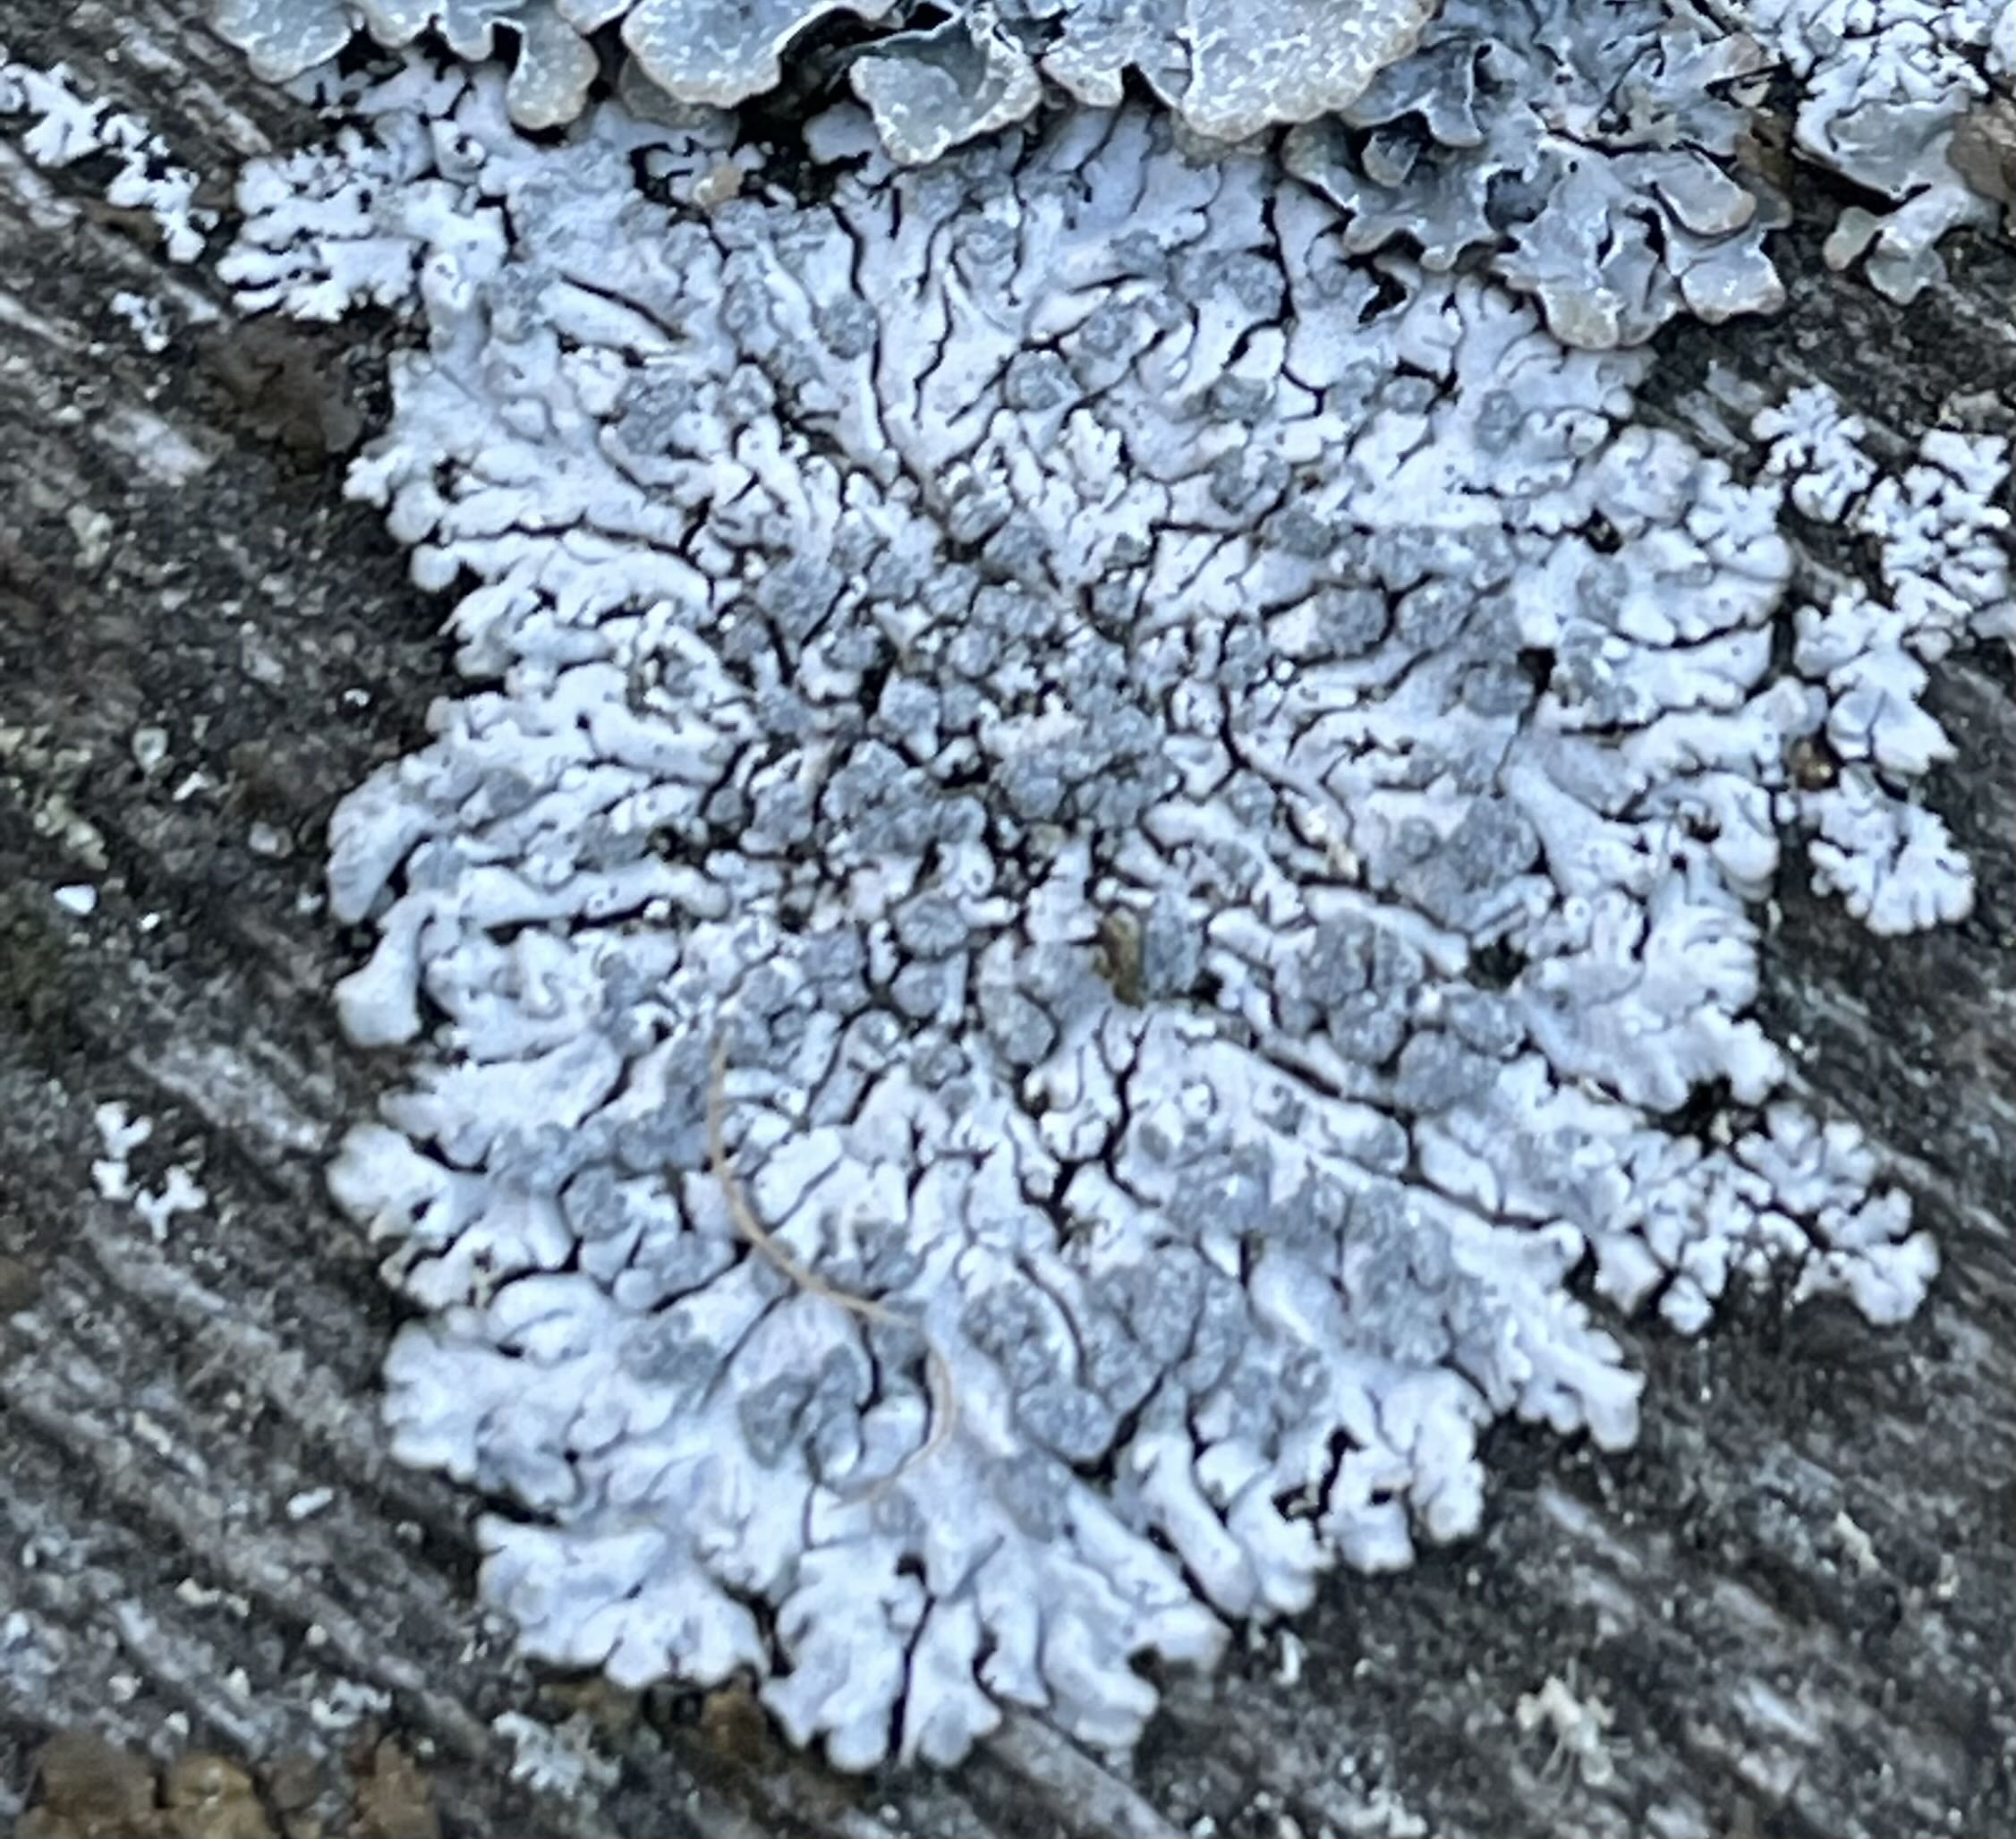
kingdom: Fungi
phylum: Ascomycota
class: Lecanoromycetes
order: Caliciales
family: Physciaceae
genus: Physcia
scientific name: Physcia caesia
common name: blågrå rosetlav
